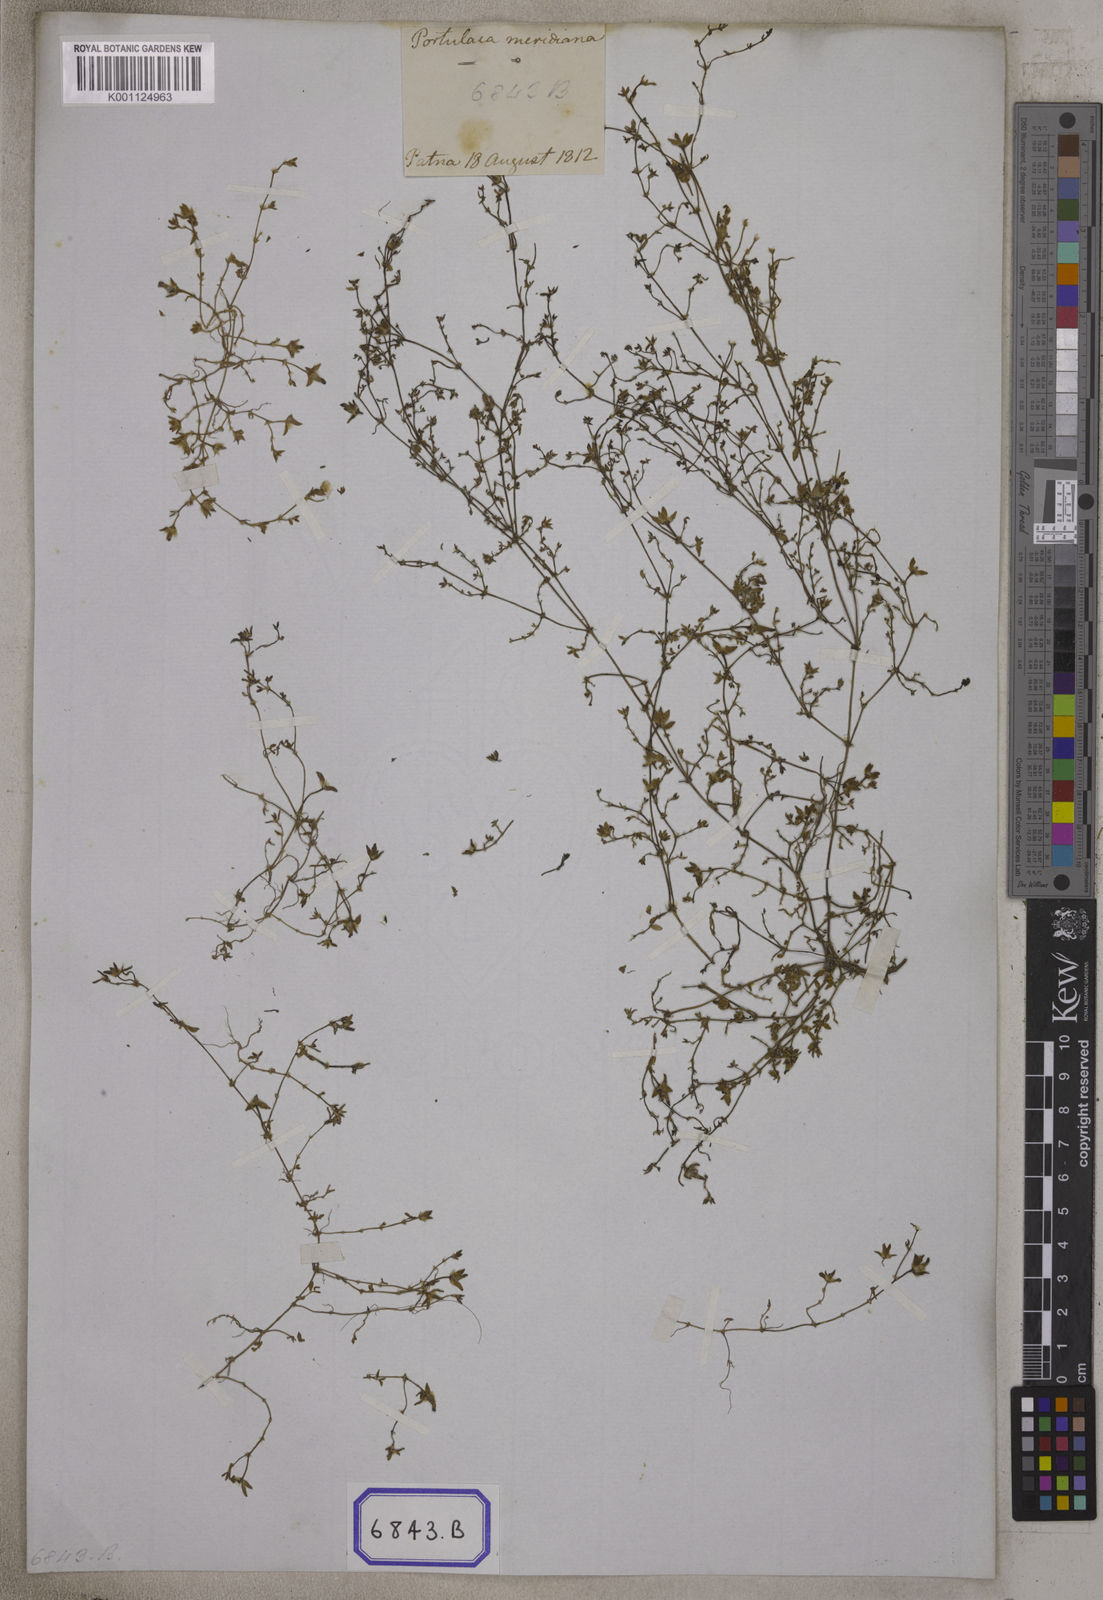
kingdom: Plantae
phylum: Tracheophyta
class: Magnoliopsida
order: Caryophyllales
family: Portulacaceae
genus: Portulaca
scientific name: Portulaca quadrifida
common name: Chickenweed
